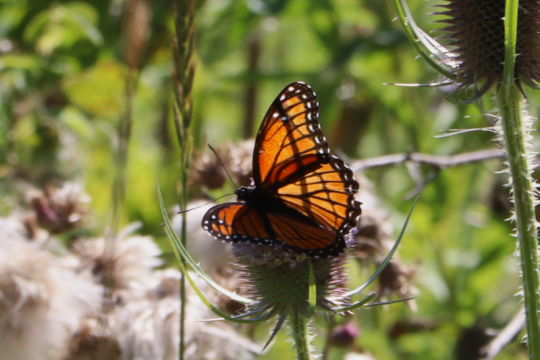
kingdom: Animalia
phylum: Arthropoda
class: Insecta
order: Lepidoptera
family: Nymphalidae
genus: Limenitis
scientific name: Limenitis archippus
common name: Viceroy
